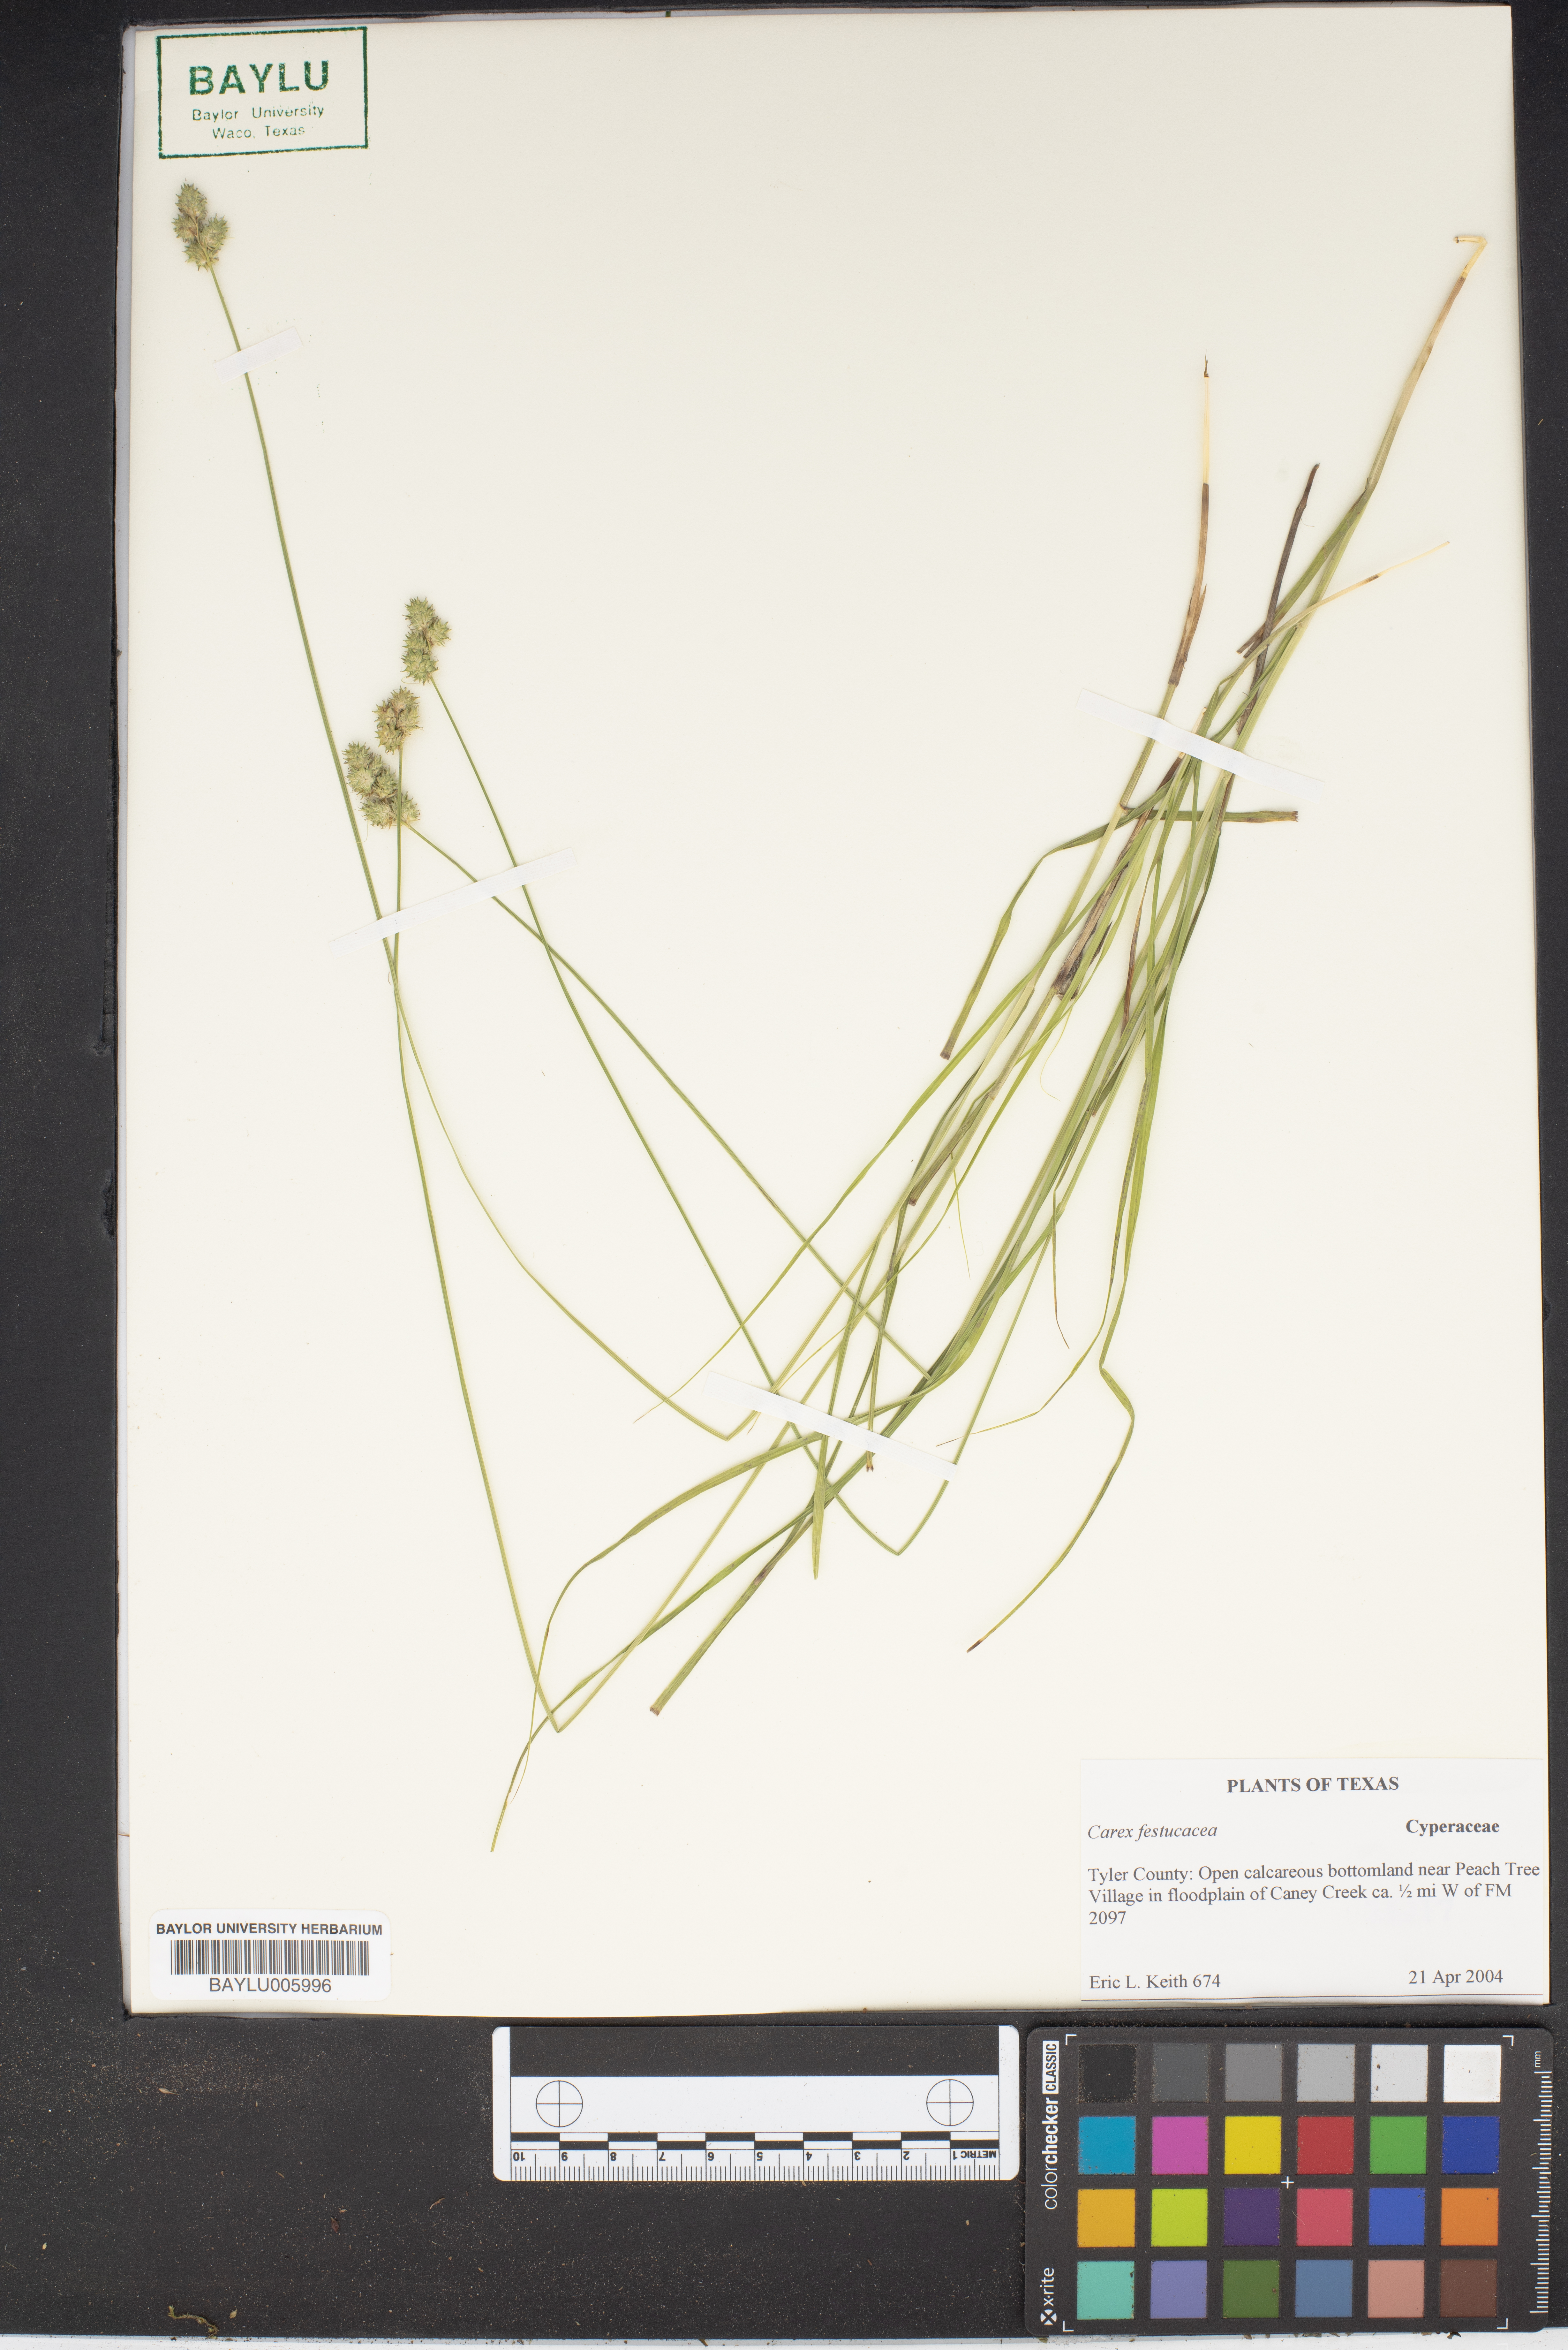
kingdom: Plantae
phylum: Tracheophyta
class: Liliopsida
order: Poales
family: Cyperaceae
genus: Carex
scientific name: Carex festucacea
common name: Fescue oval sedge
